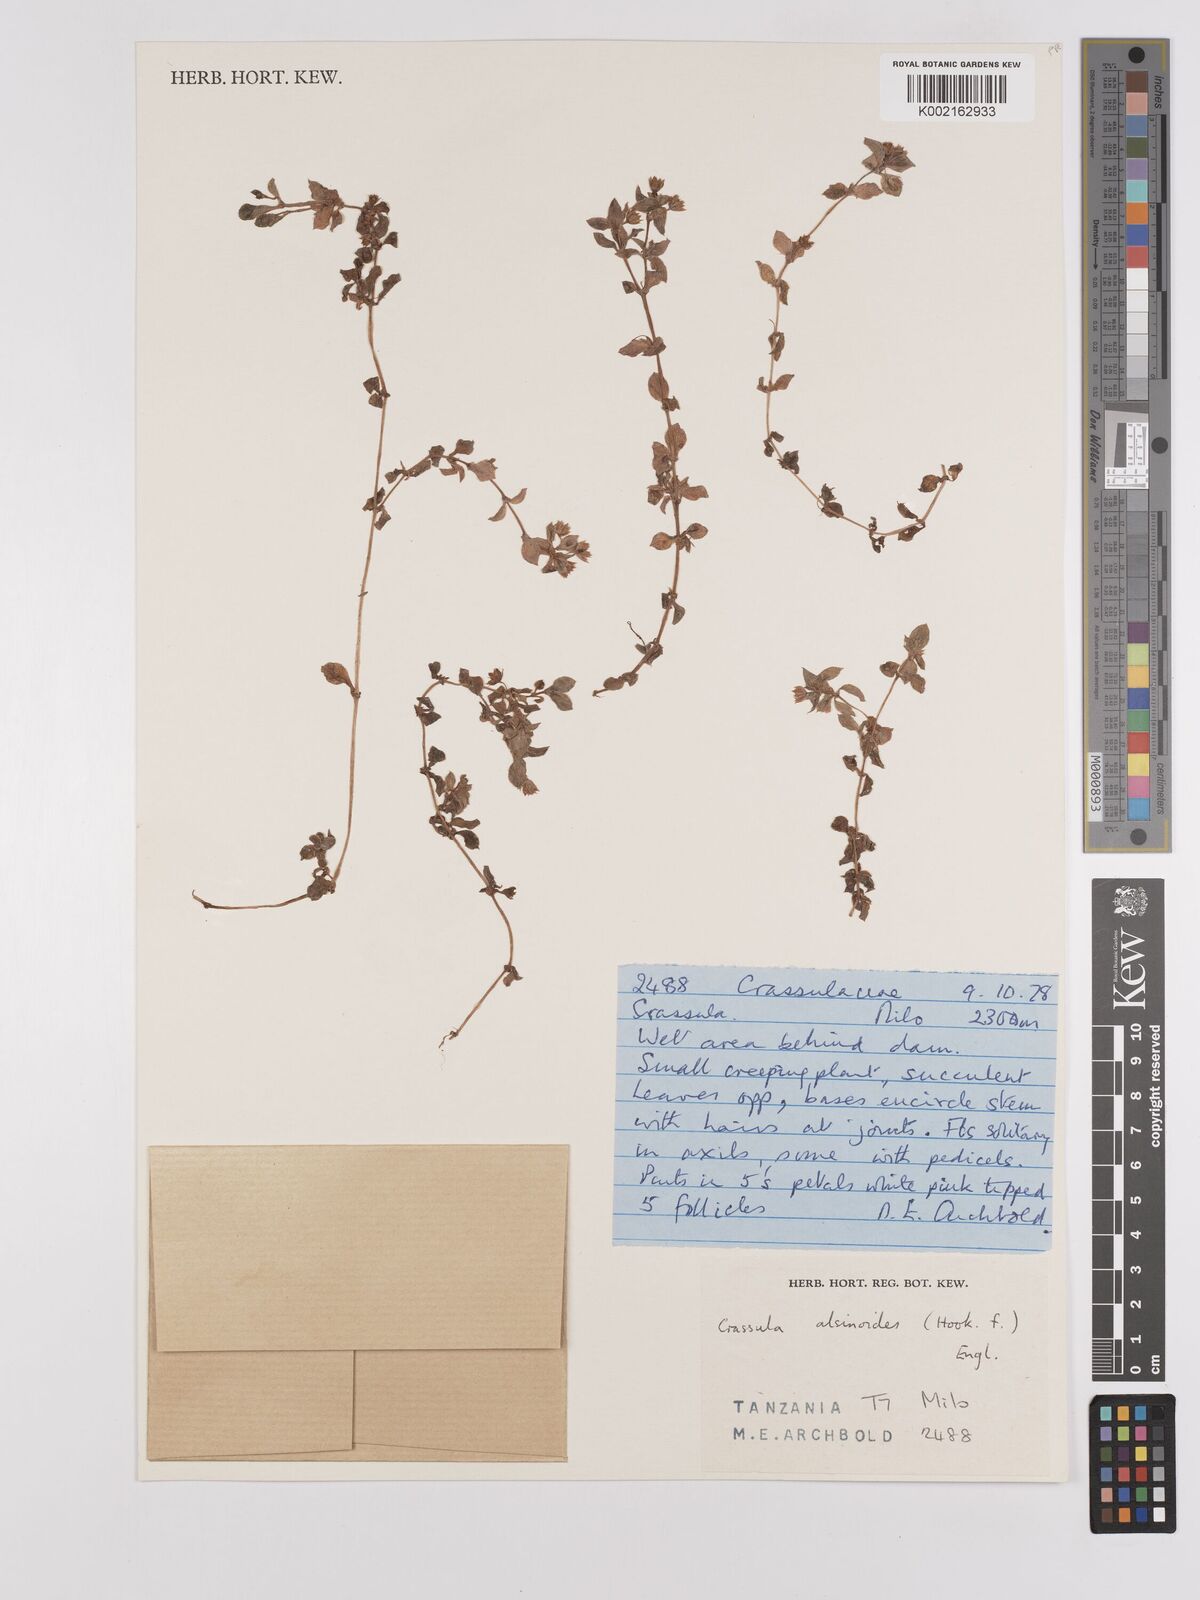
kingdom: Plantae
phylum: Tracheophyta
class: Magnoliopsida
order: Saxifragales
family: Crassulaceae
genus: Crassula
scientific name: Crassula alsinoides
